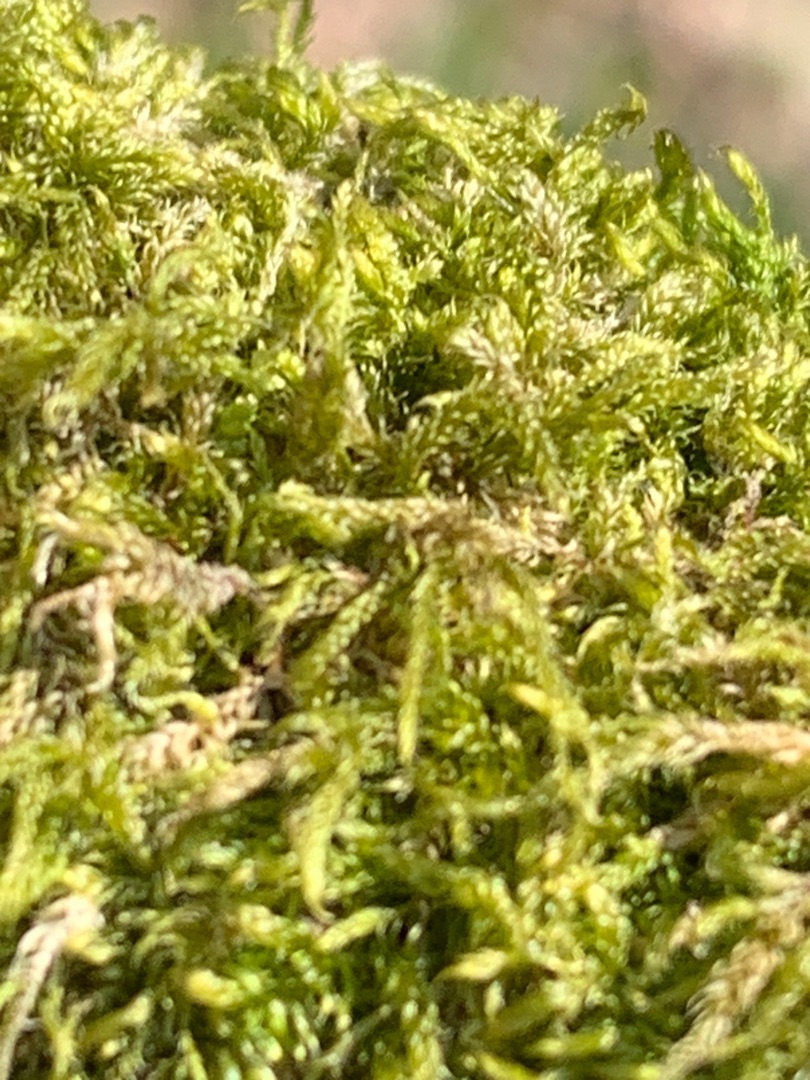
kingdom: Plantae
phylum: Bryophyta
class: Bryopsida
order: Hypnales
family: Hypnaceae
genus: Hypnum
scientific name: Hypnum cupressiforme
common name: Almindelig cypresmos
